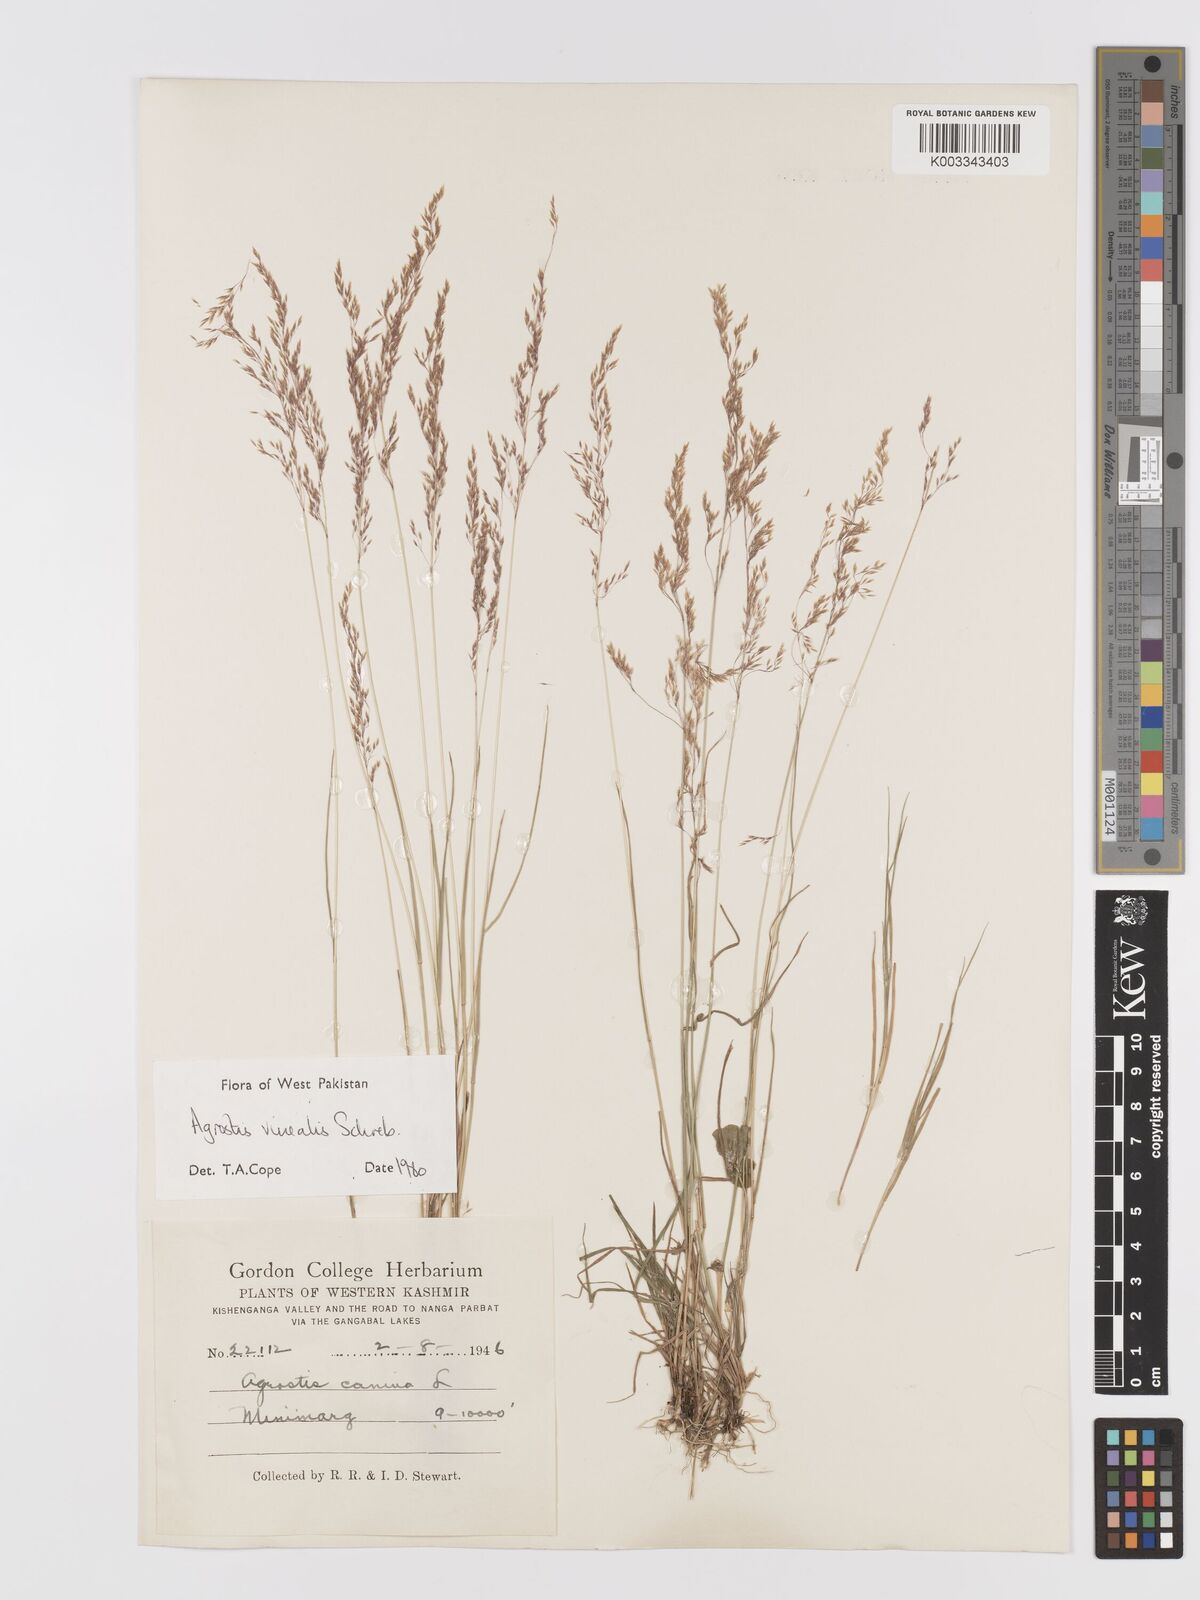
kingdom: Plantae
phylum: Tracheophyta
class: Liliopsida
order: Poales
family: Poaceae
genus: Agrostis
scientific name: Agrostis vinealis
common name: Brown bent
